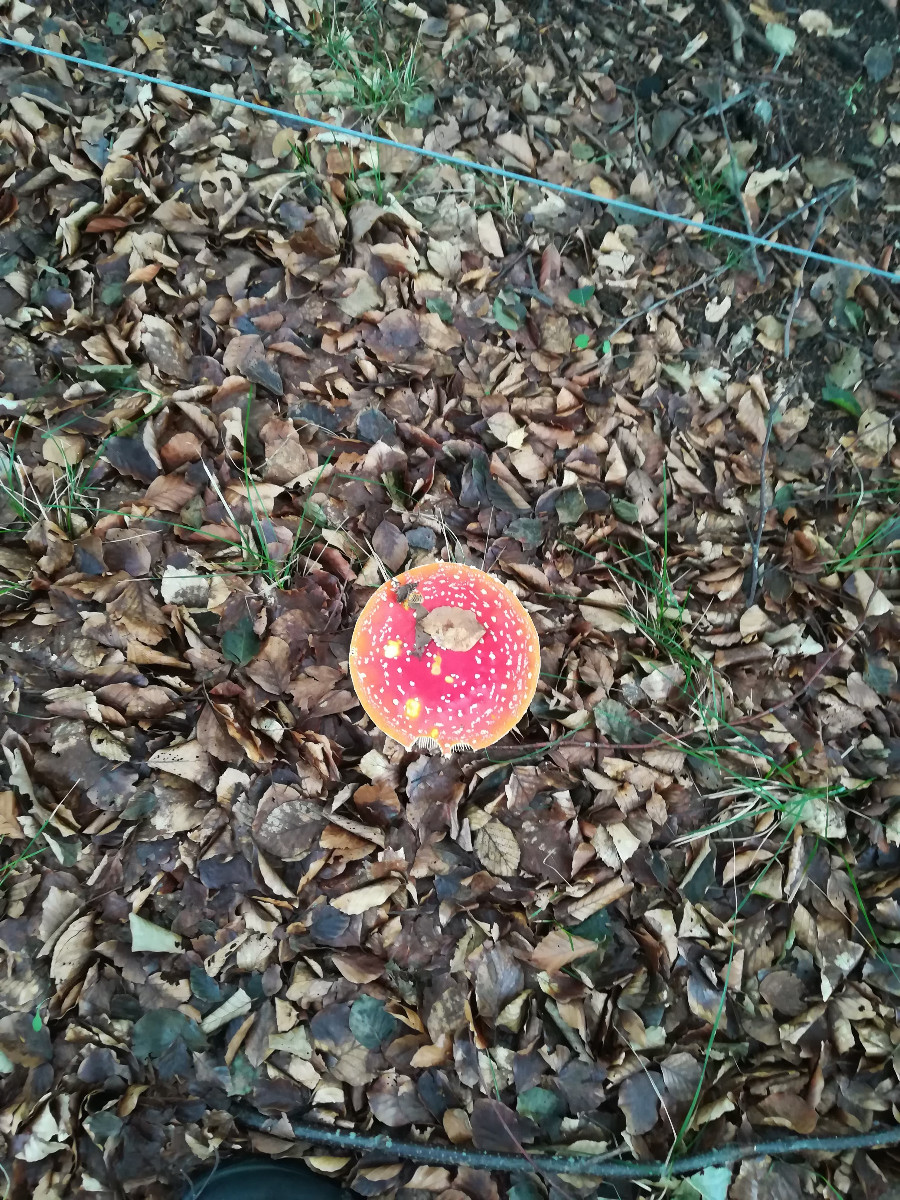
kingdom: Fungi
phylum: Basidiomycota
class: Agaricomycetes
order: Agaricales
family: Amanitaceae
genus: Amanita
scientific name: Amanita muscaria
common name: rød fluesvamp
